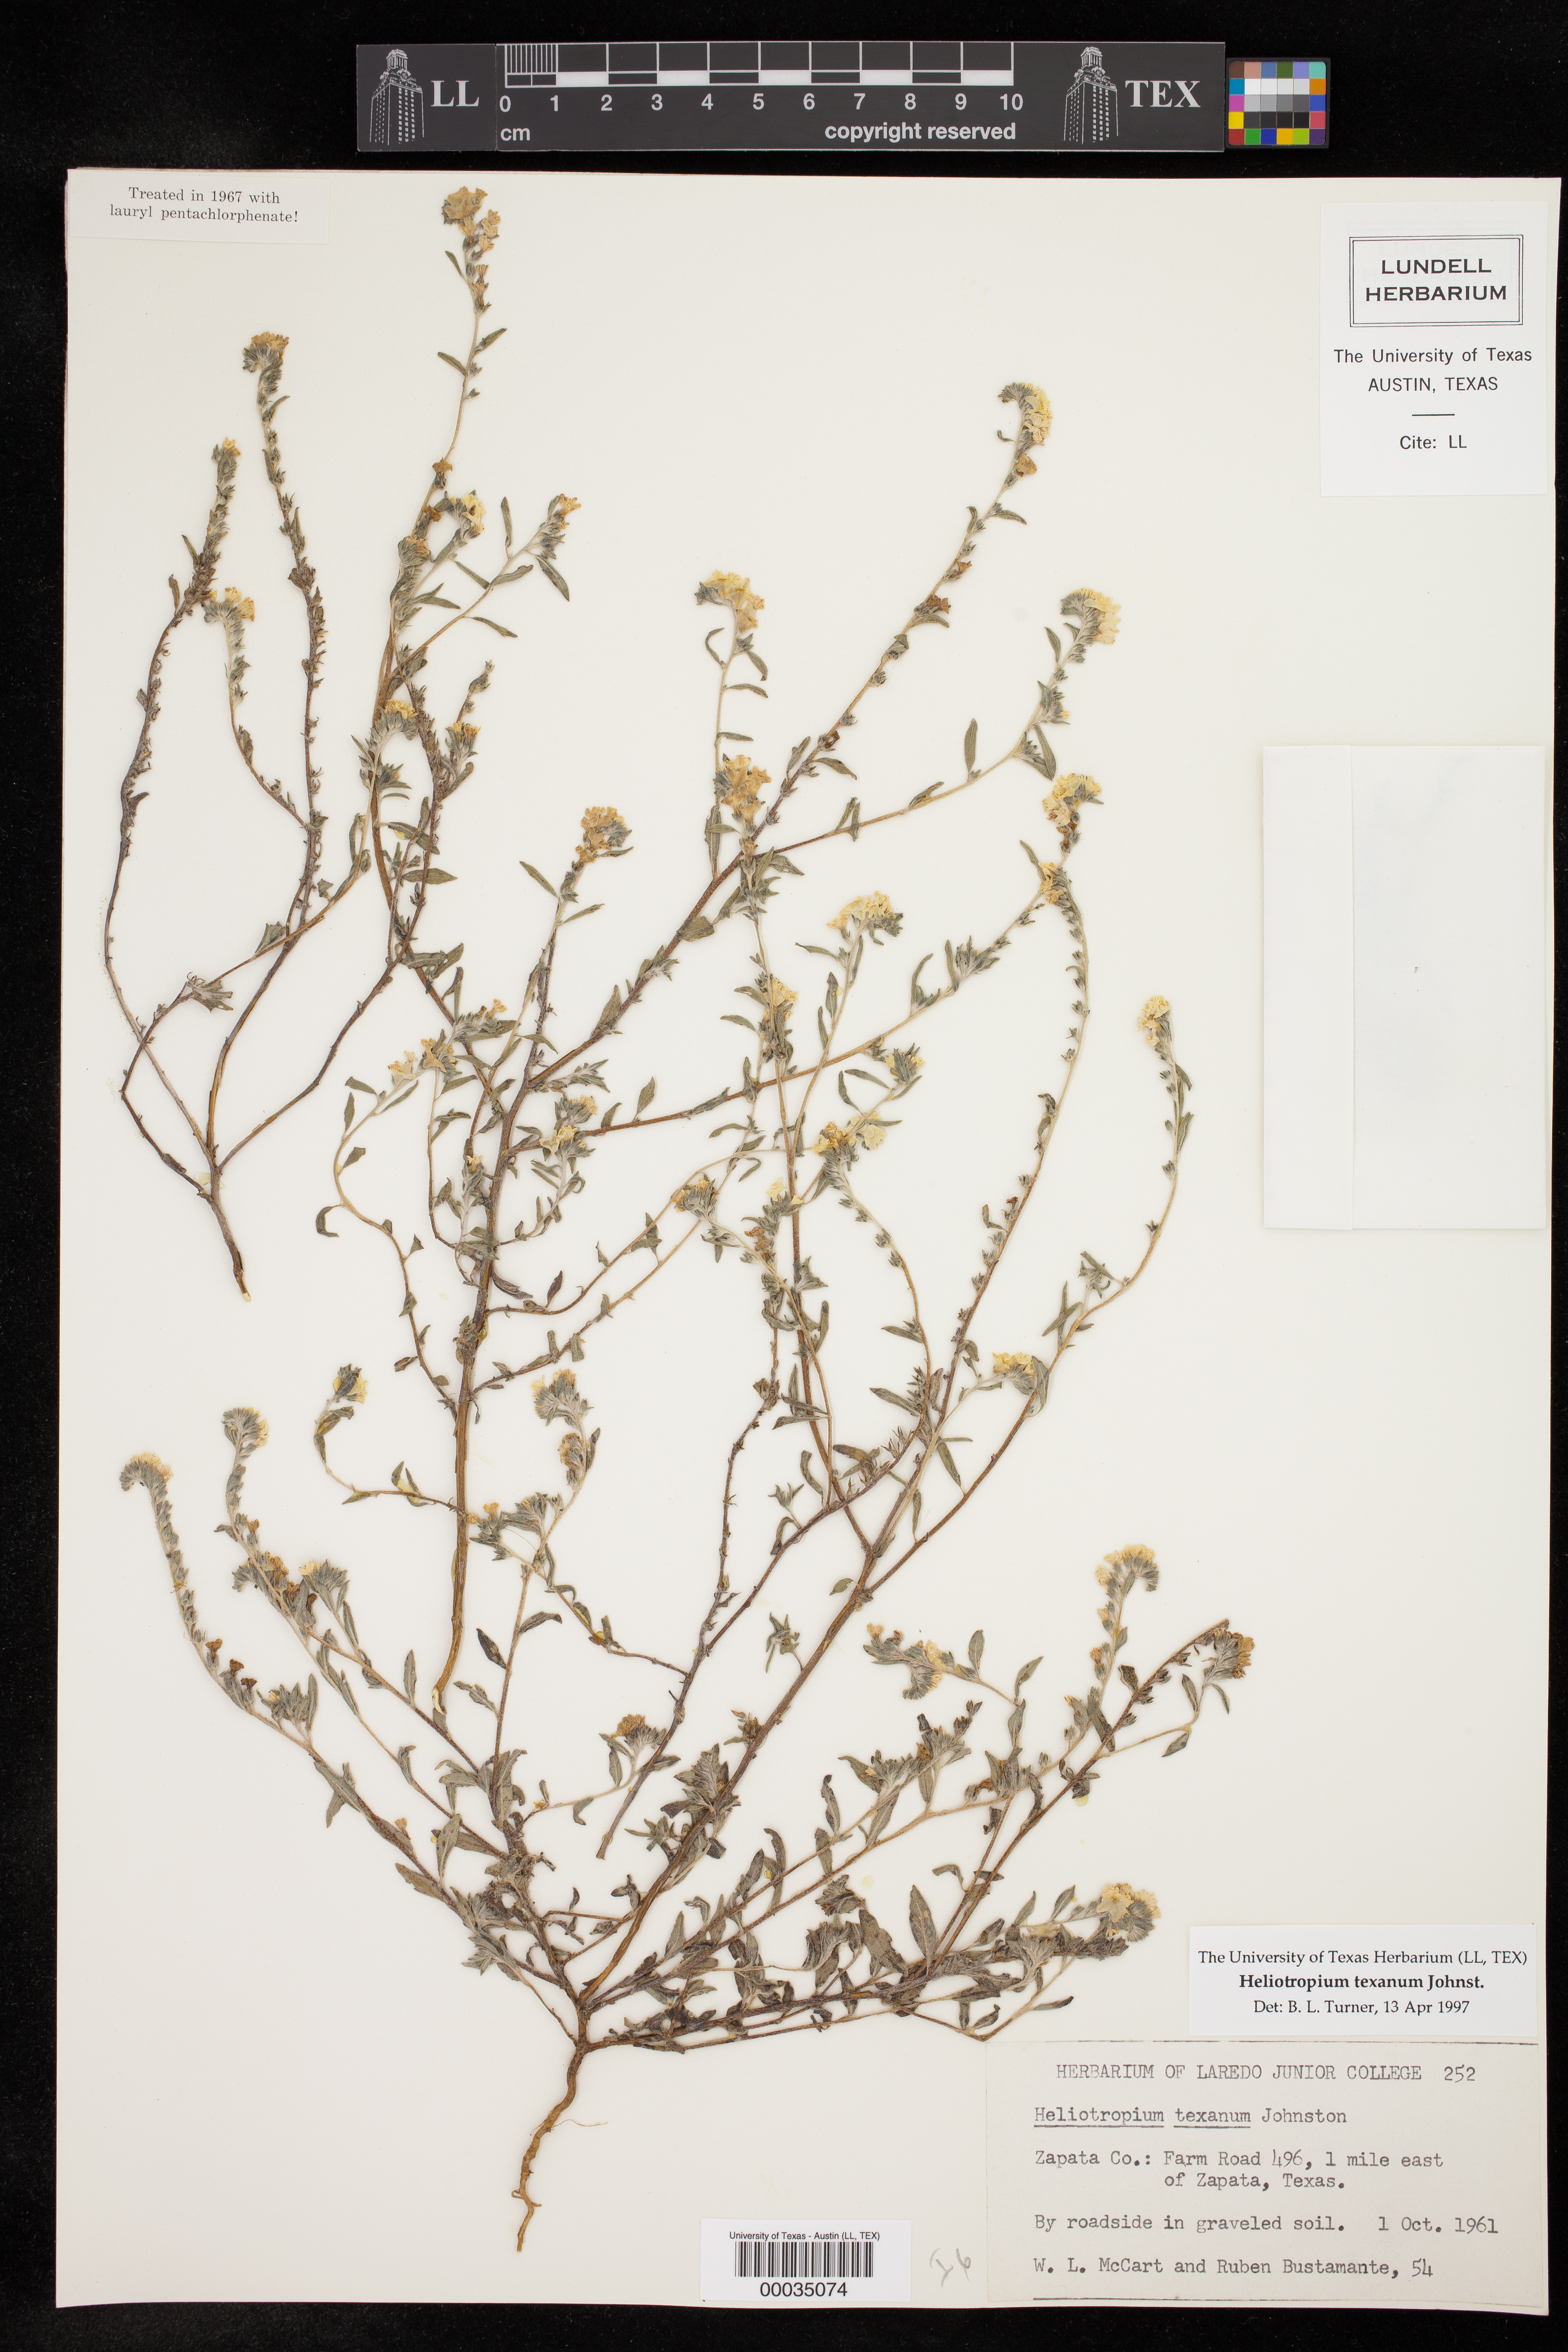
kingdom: Plantae
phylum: Tracheophyta
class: Magnoliopsida
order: Boraginales
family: Heliotropiaceae
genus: Euploca
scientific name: Euploca fruticosa
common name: Key west heliotrope
